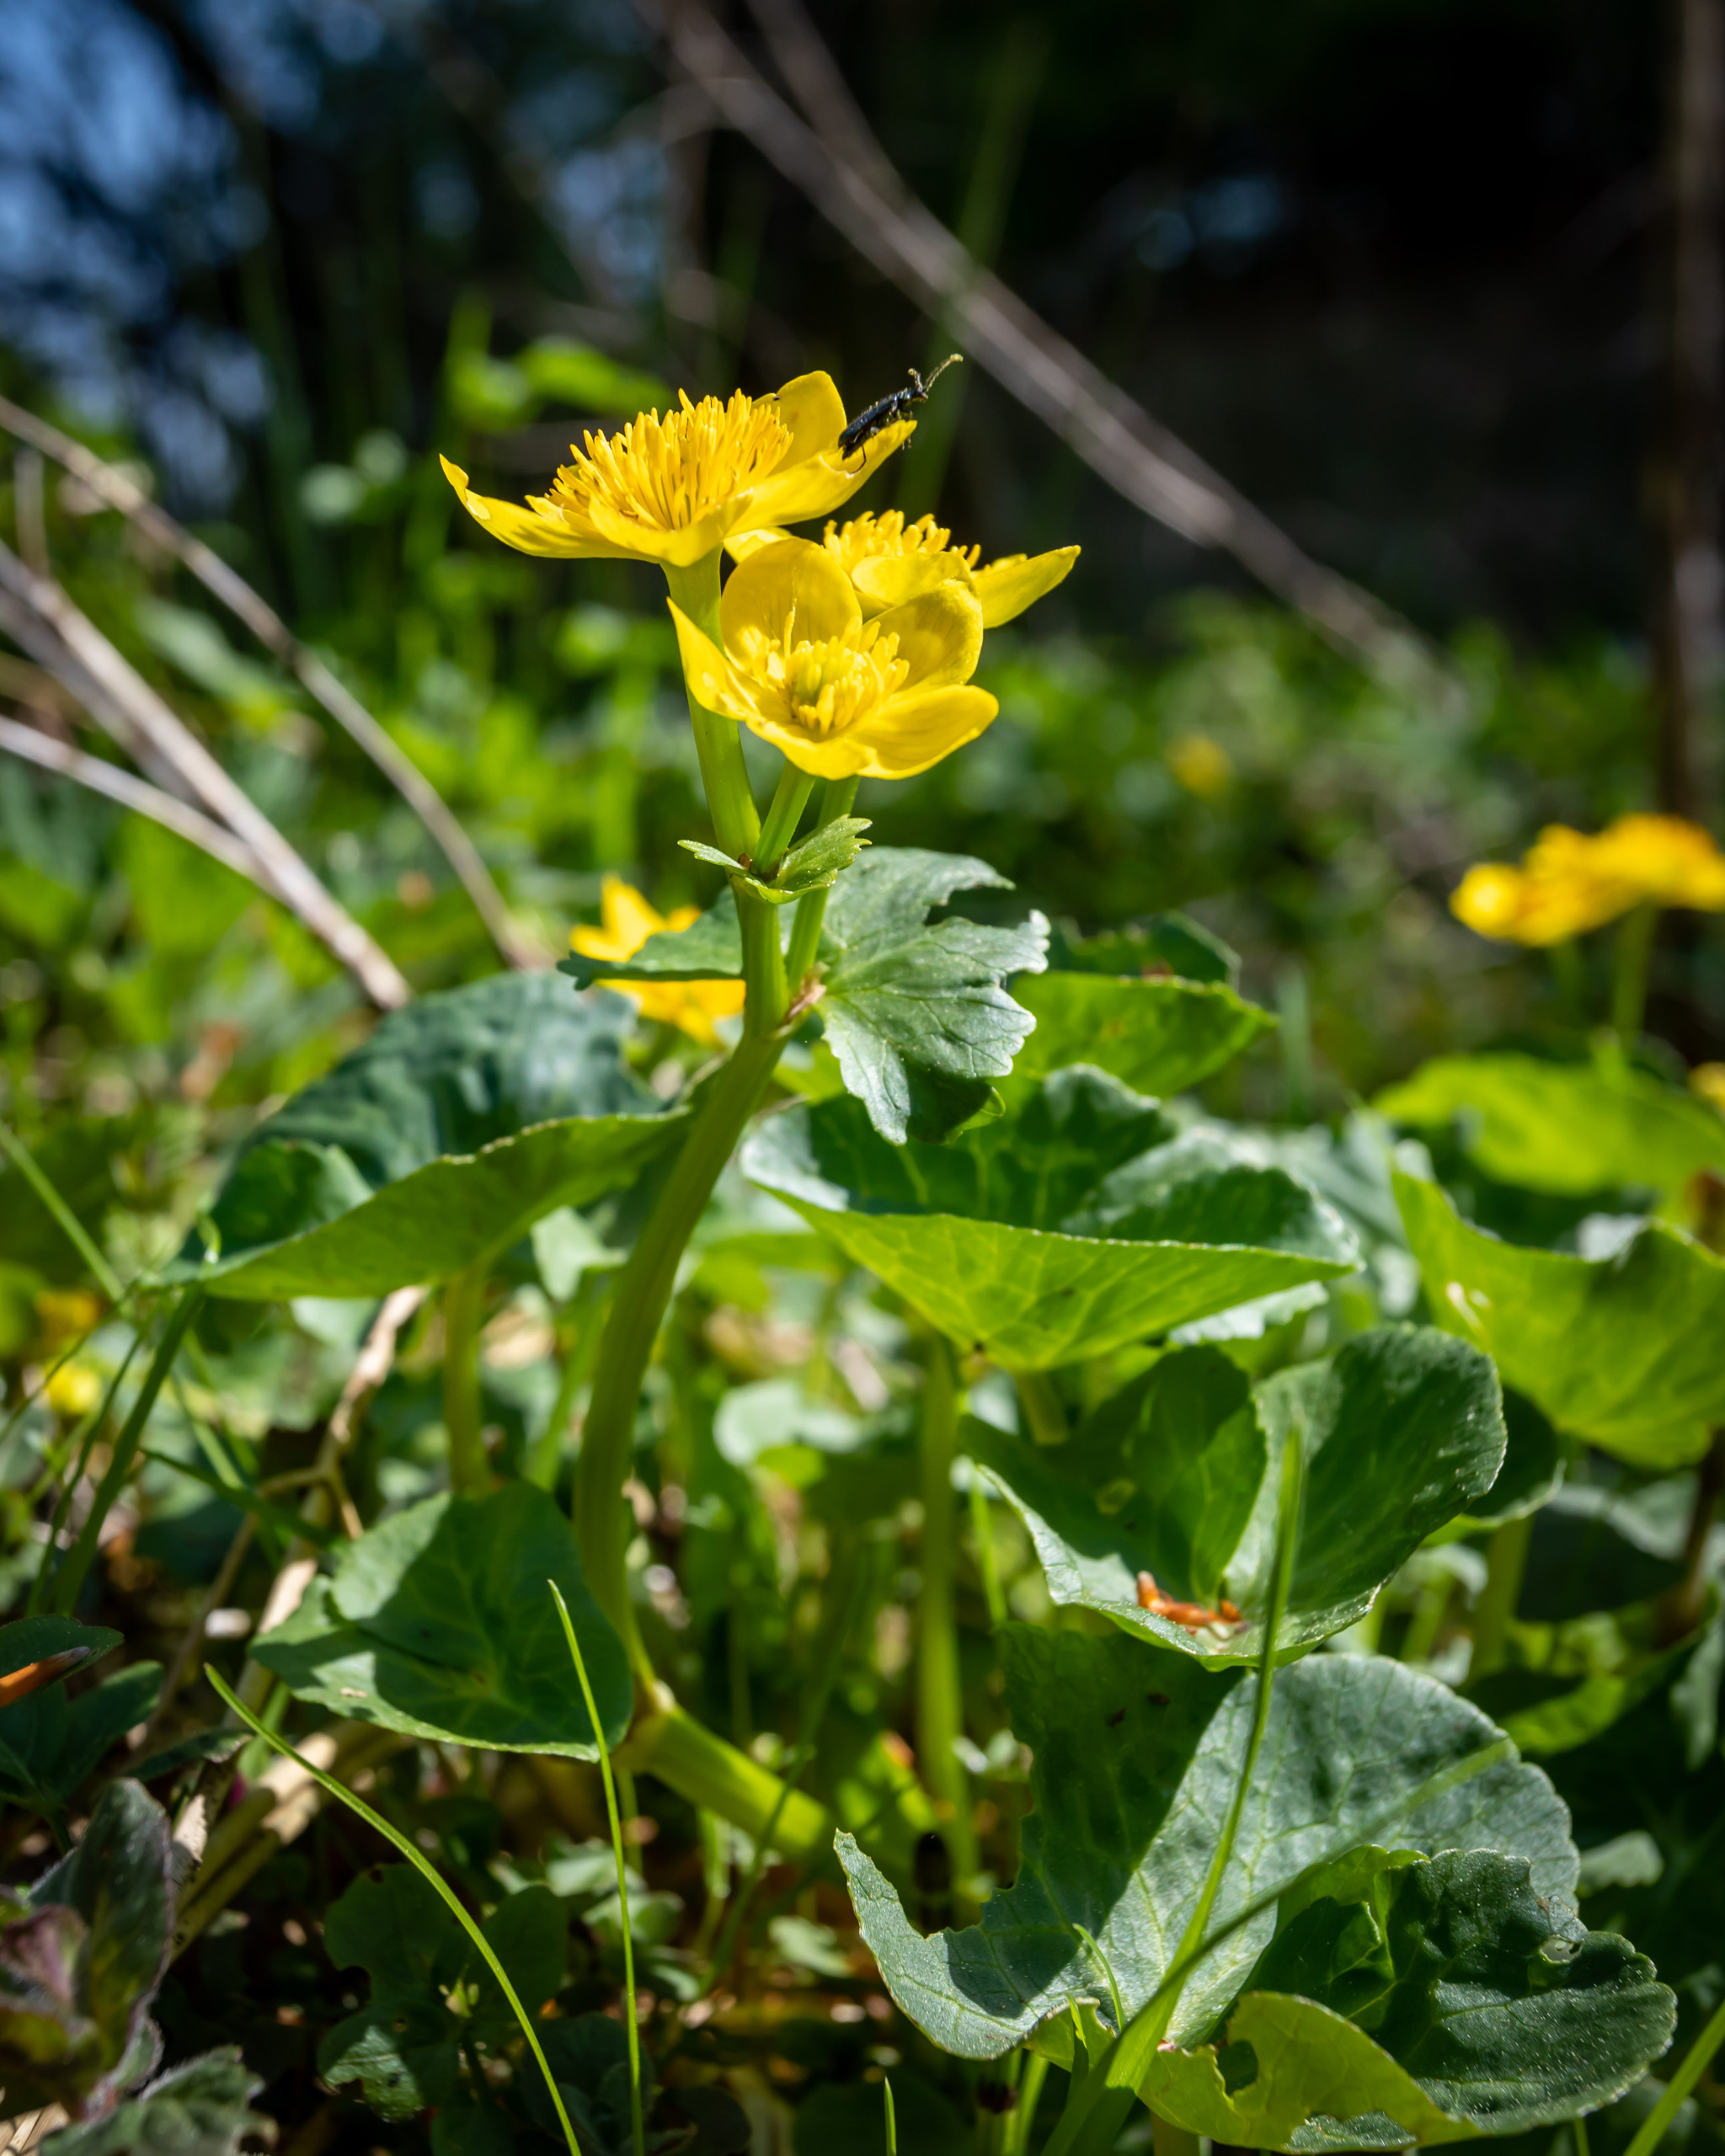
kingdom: Plantae
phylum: Tracheophyta
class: Magnoliopsida
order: Ranunculales
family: Ranunculaceae
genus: Caltha
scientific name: Caltha palustris
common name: Eng-kabbeleje
